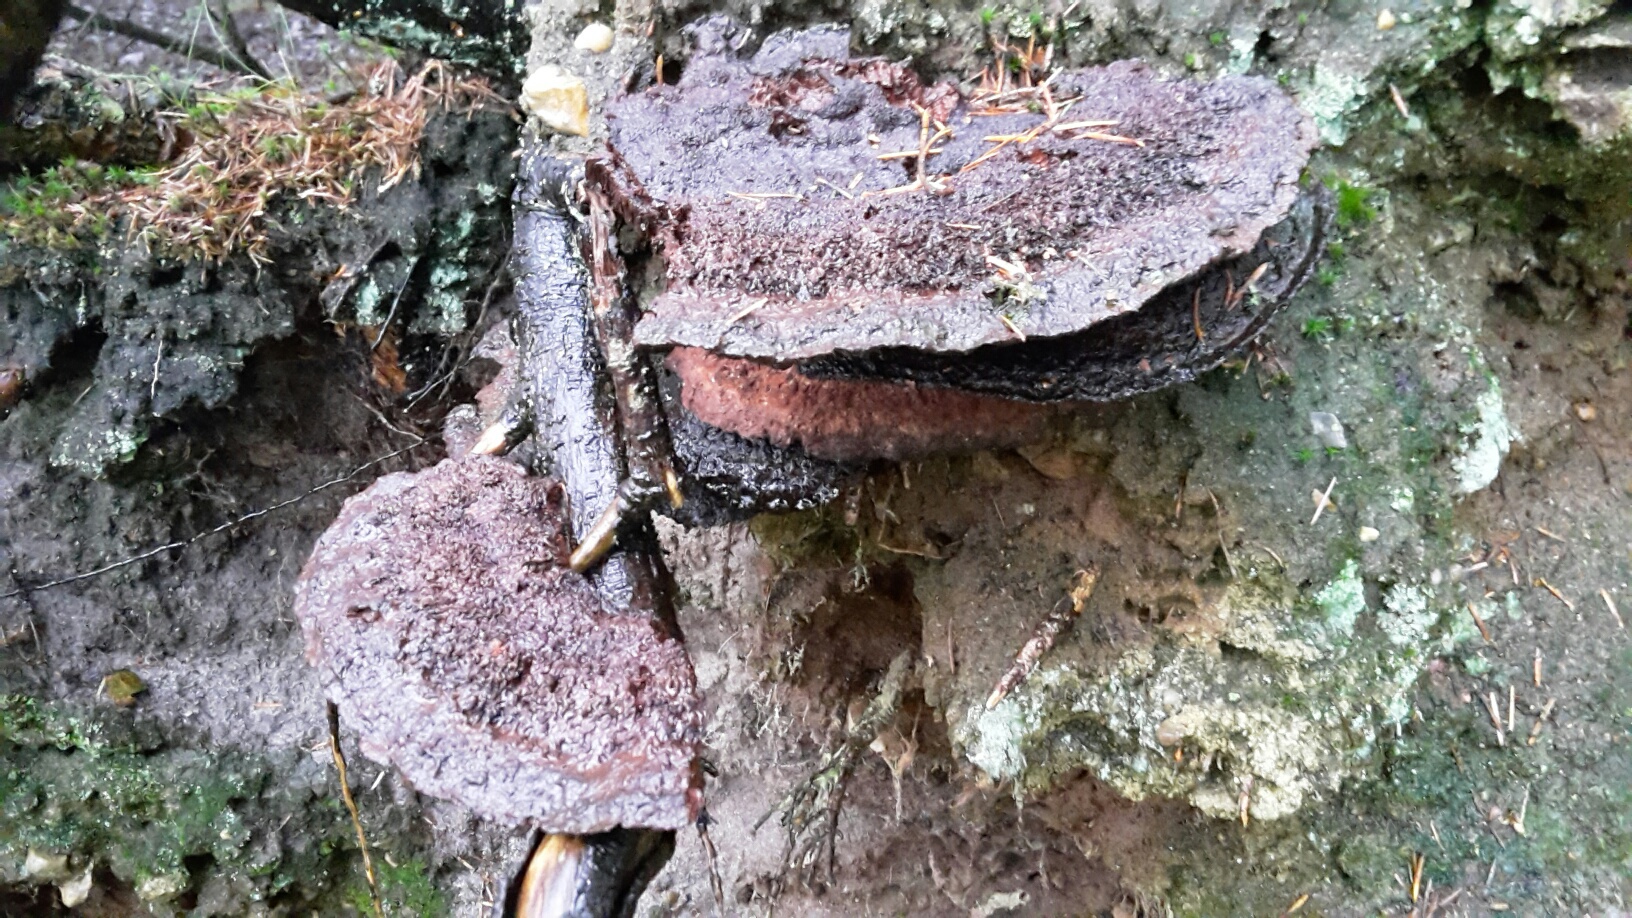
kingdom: Fungi
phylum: Basidiomycota
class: Agaricomycetes
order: Polyporales
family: Laetiporaceae
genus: Phaeolus
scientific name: Phaeolus schweinitzii
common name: brunporesvamp
